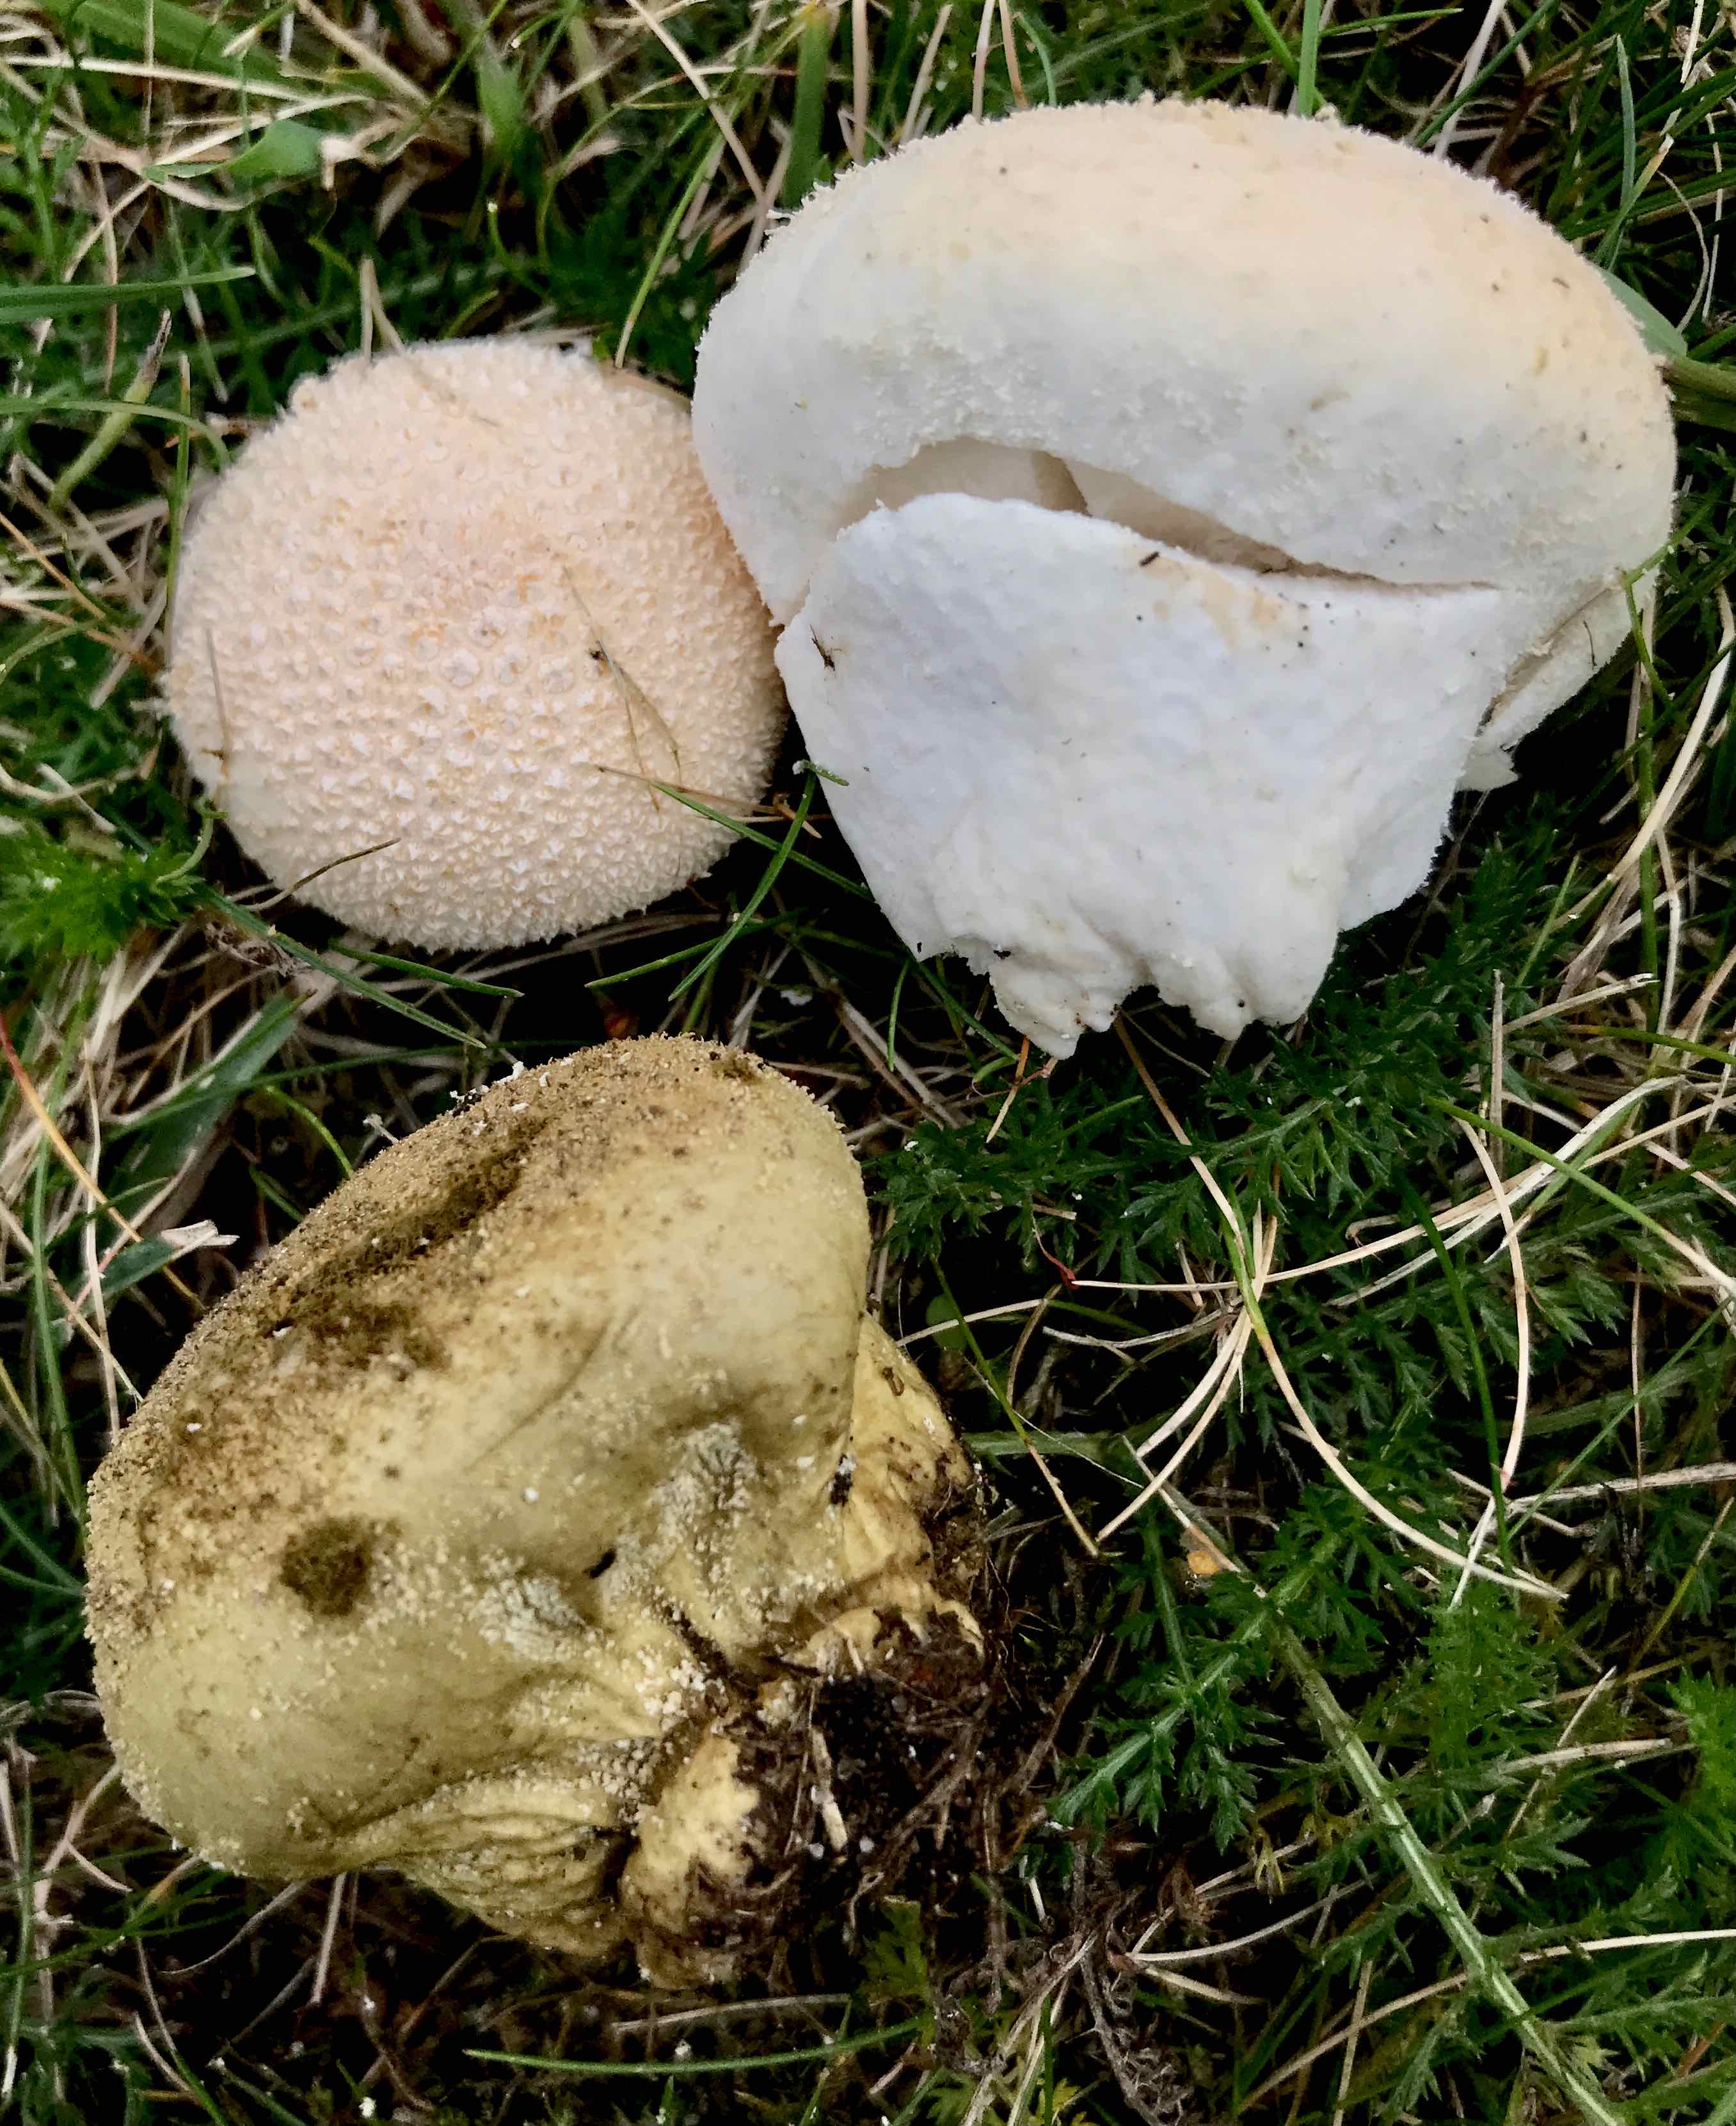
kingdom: Fungi
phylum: Basidiomycota
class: Agaricomycetes
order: Agaricales
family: Lycoperdaceae
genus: Lycoperdon
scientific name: Lycoperdon pratense
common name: flad støvbold
